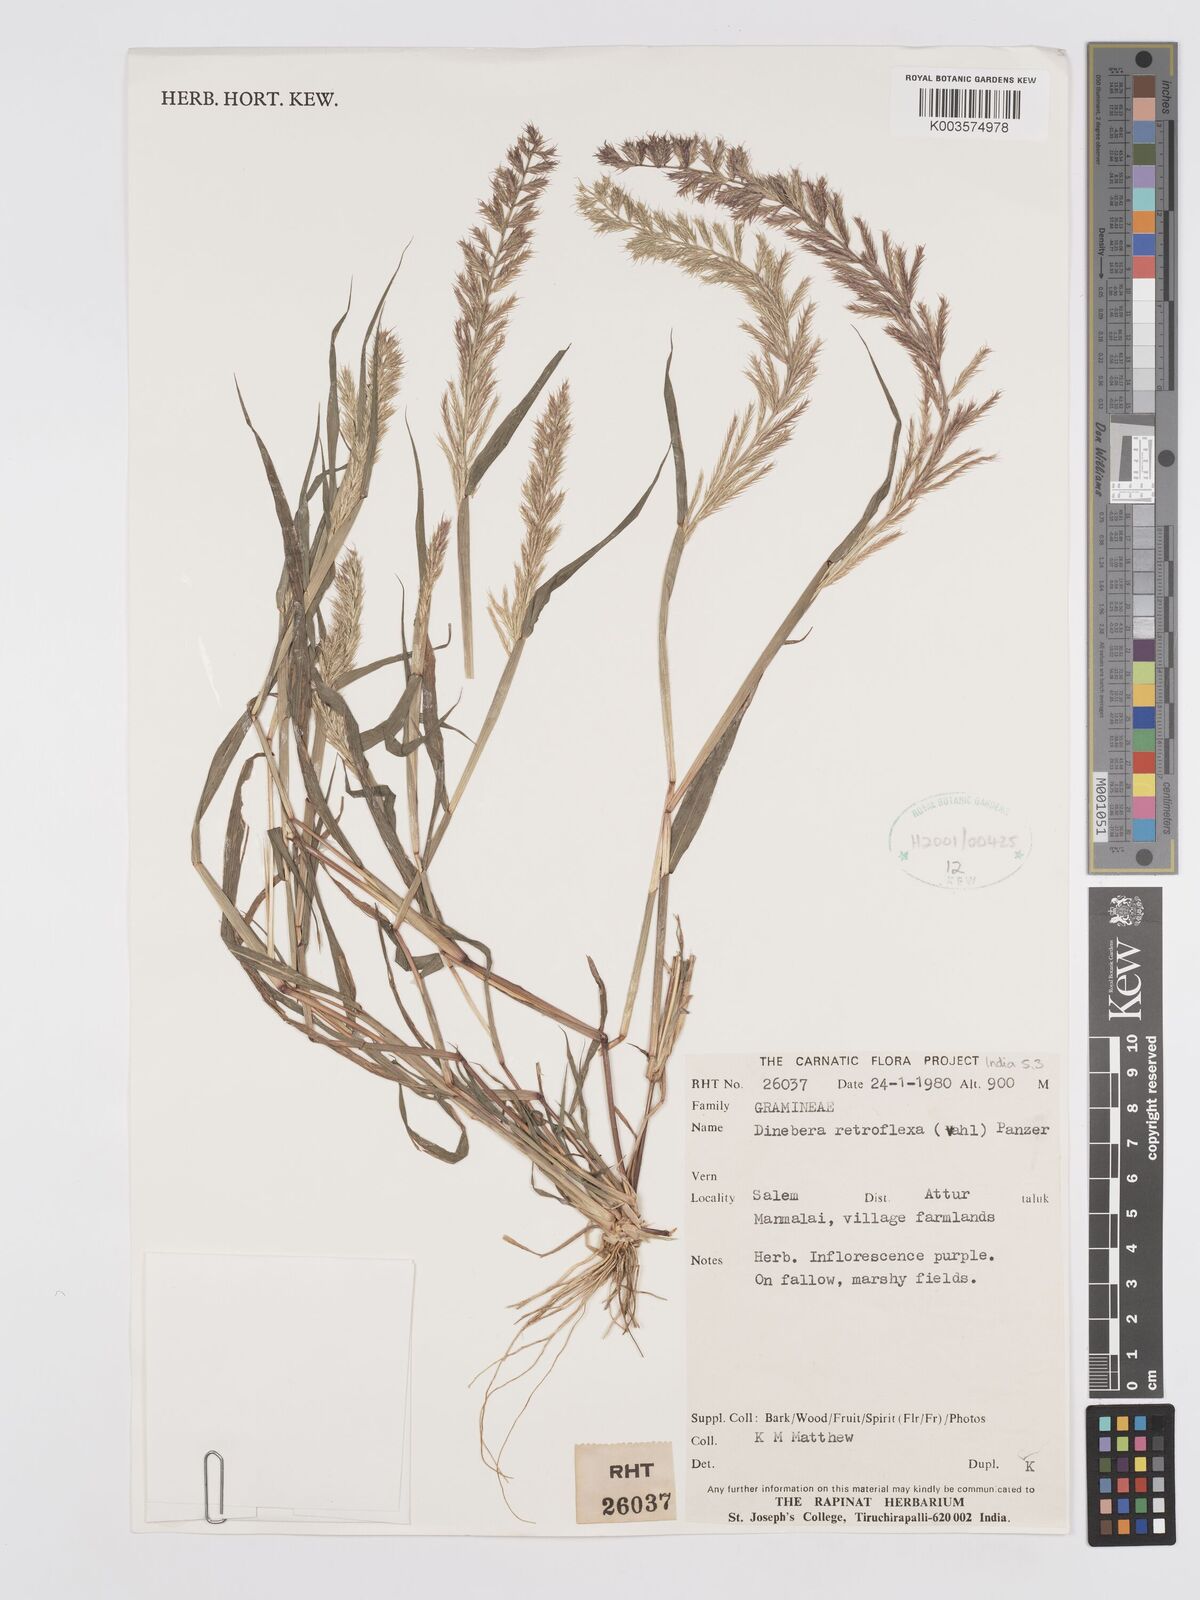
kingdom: Plantae
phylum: Tracheophyta
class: Liliopsida
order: Poales
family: Poaceae
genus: Dinebra
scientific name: Dinebra retroflexa
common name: Viper grass
